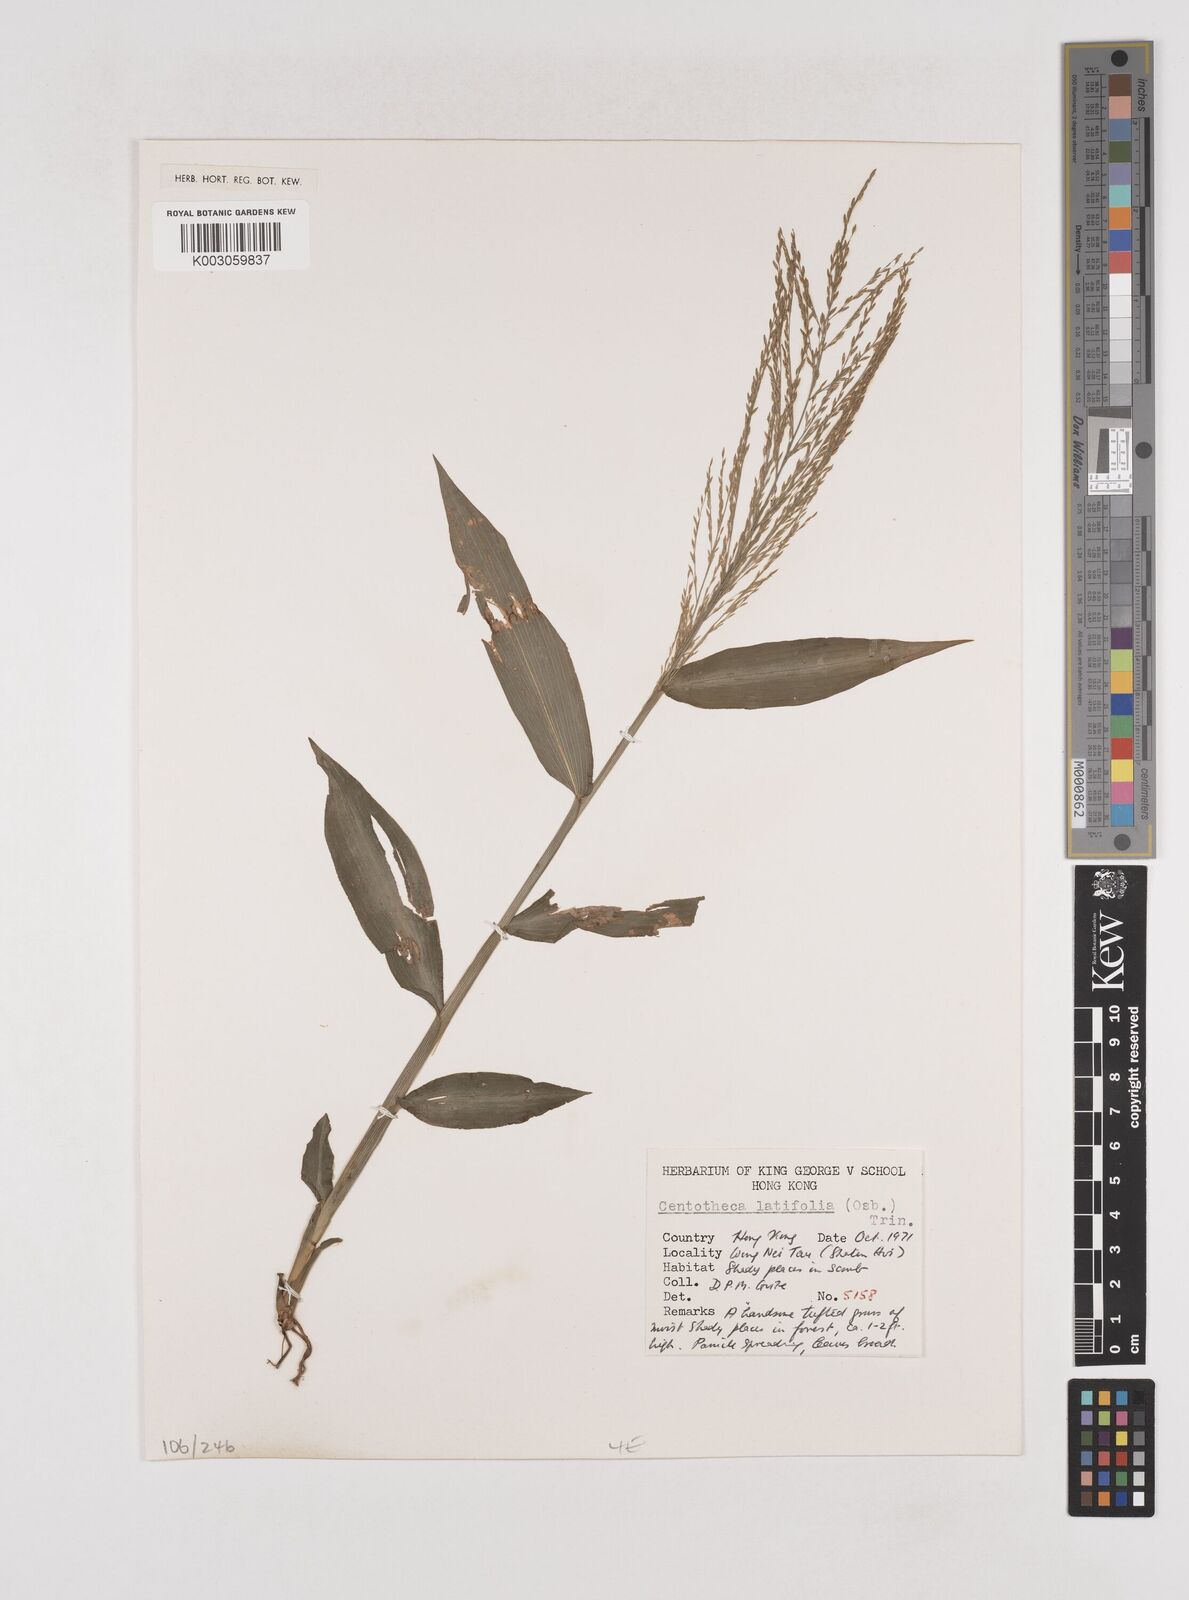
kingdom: Plantae
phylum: Tracheophyta
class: Liliopsida
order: Poales
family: Poaceae
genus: Centotheca
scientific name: Centotheca lappacea
